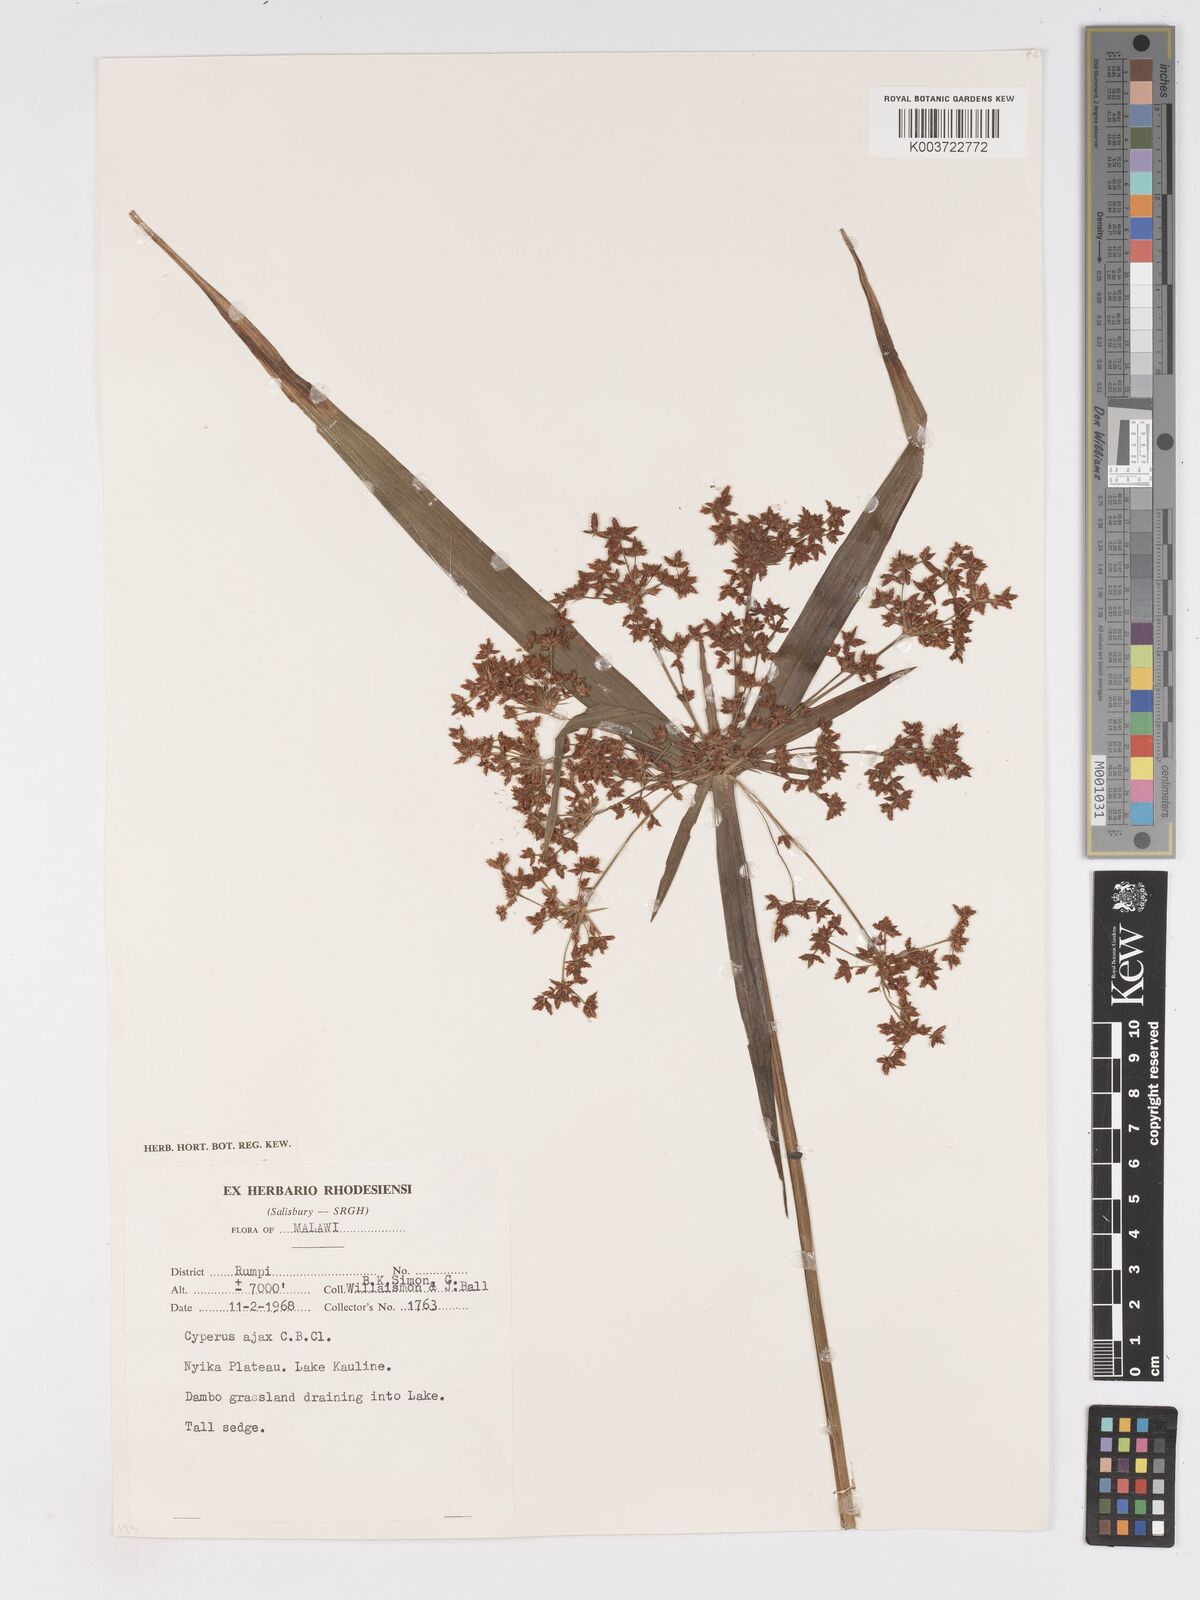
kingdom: Plantae
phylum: Tracheophyta
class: Liliopsida
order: Poales
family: Cyperaceae
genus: Cyperus
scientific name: Cyperus ajax
